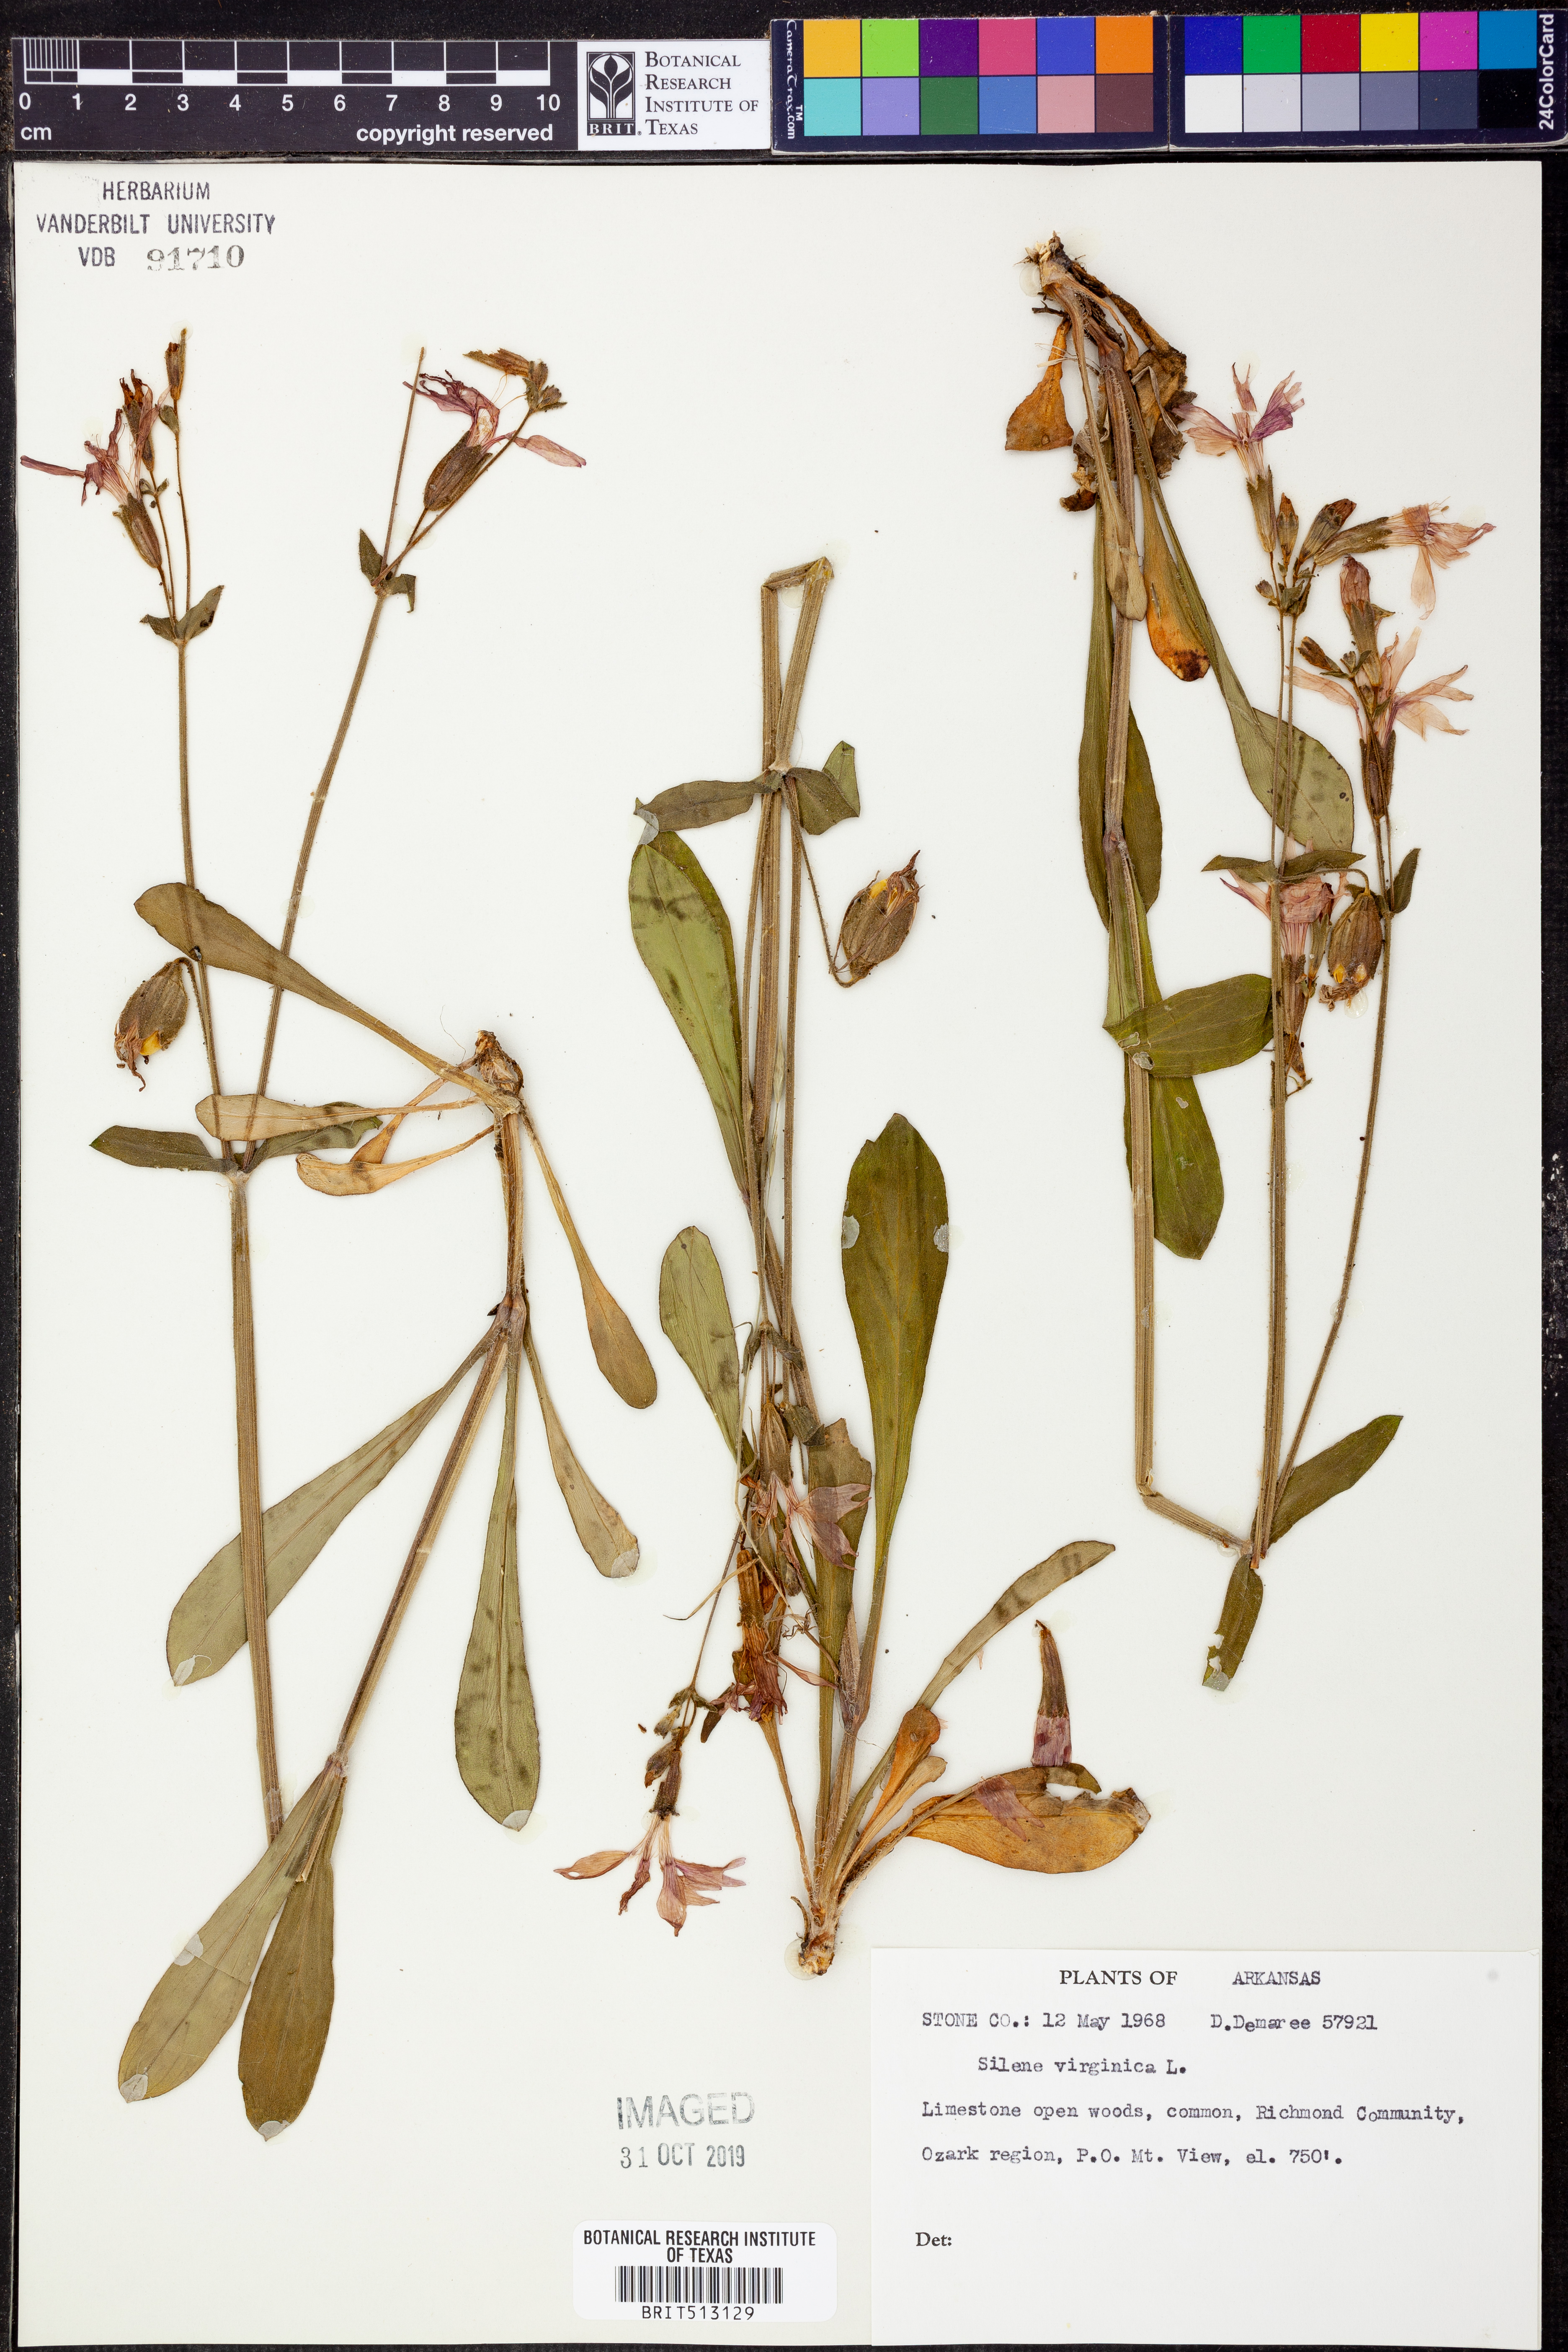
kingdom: Plantae
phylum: Tracheophyta
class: Magnoliopsida
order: Caryophyllales
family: Caryophyllaceae
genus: Silene
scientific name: Silene virginica
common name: Fire-pink
